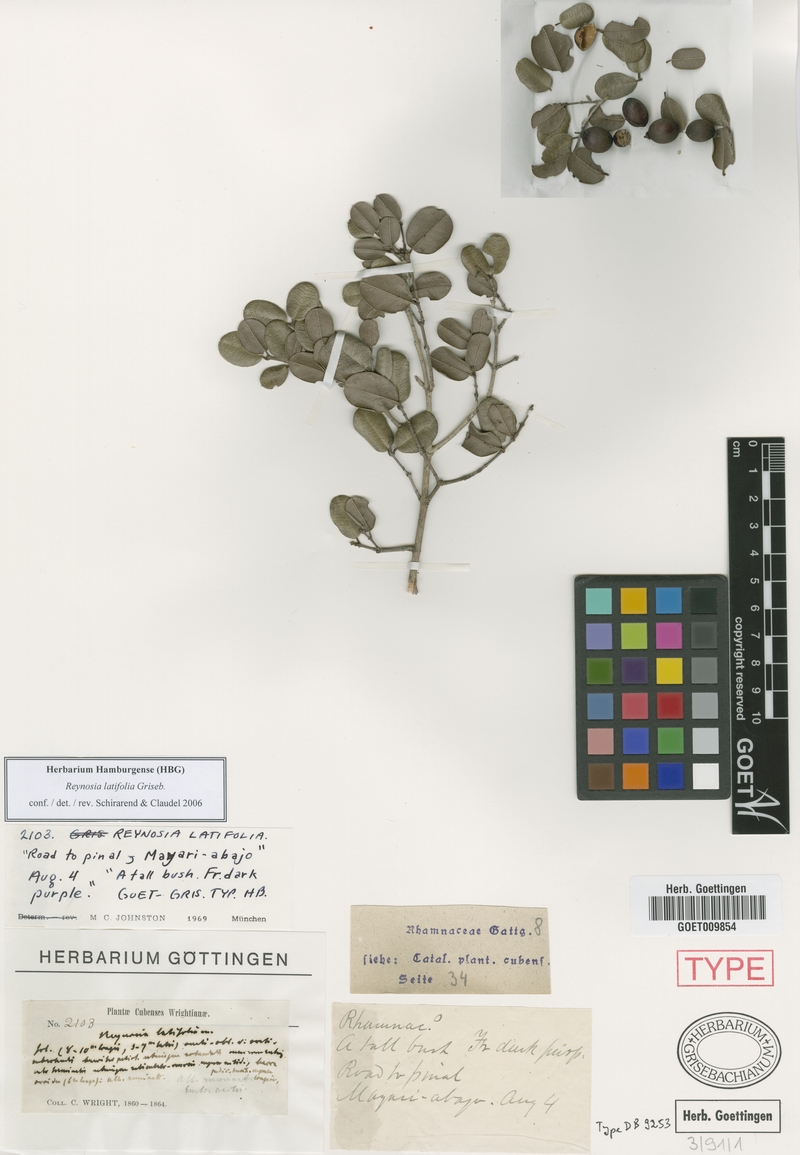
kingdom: Plantae
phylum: Tracheophyta
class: Magnoliopsida
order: Rosales
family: Rhamnaceae
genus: Reynosia
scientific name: Reynosia latifolia
